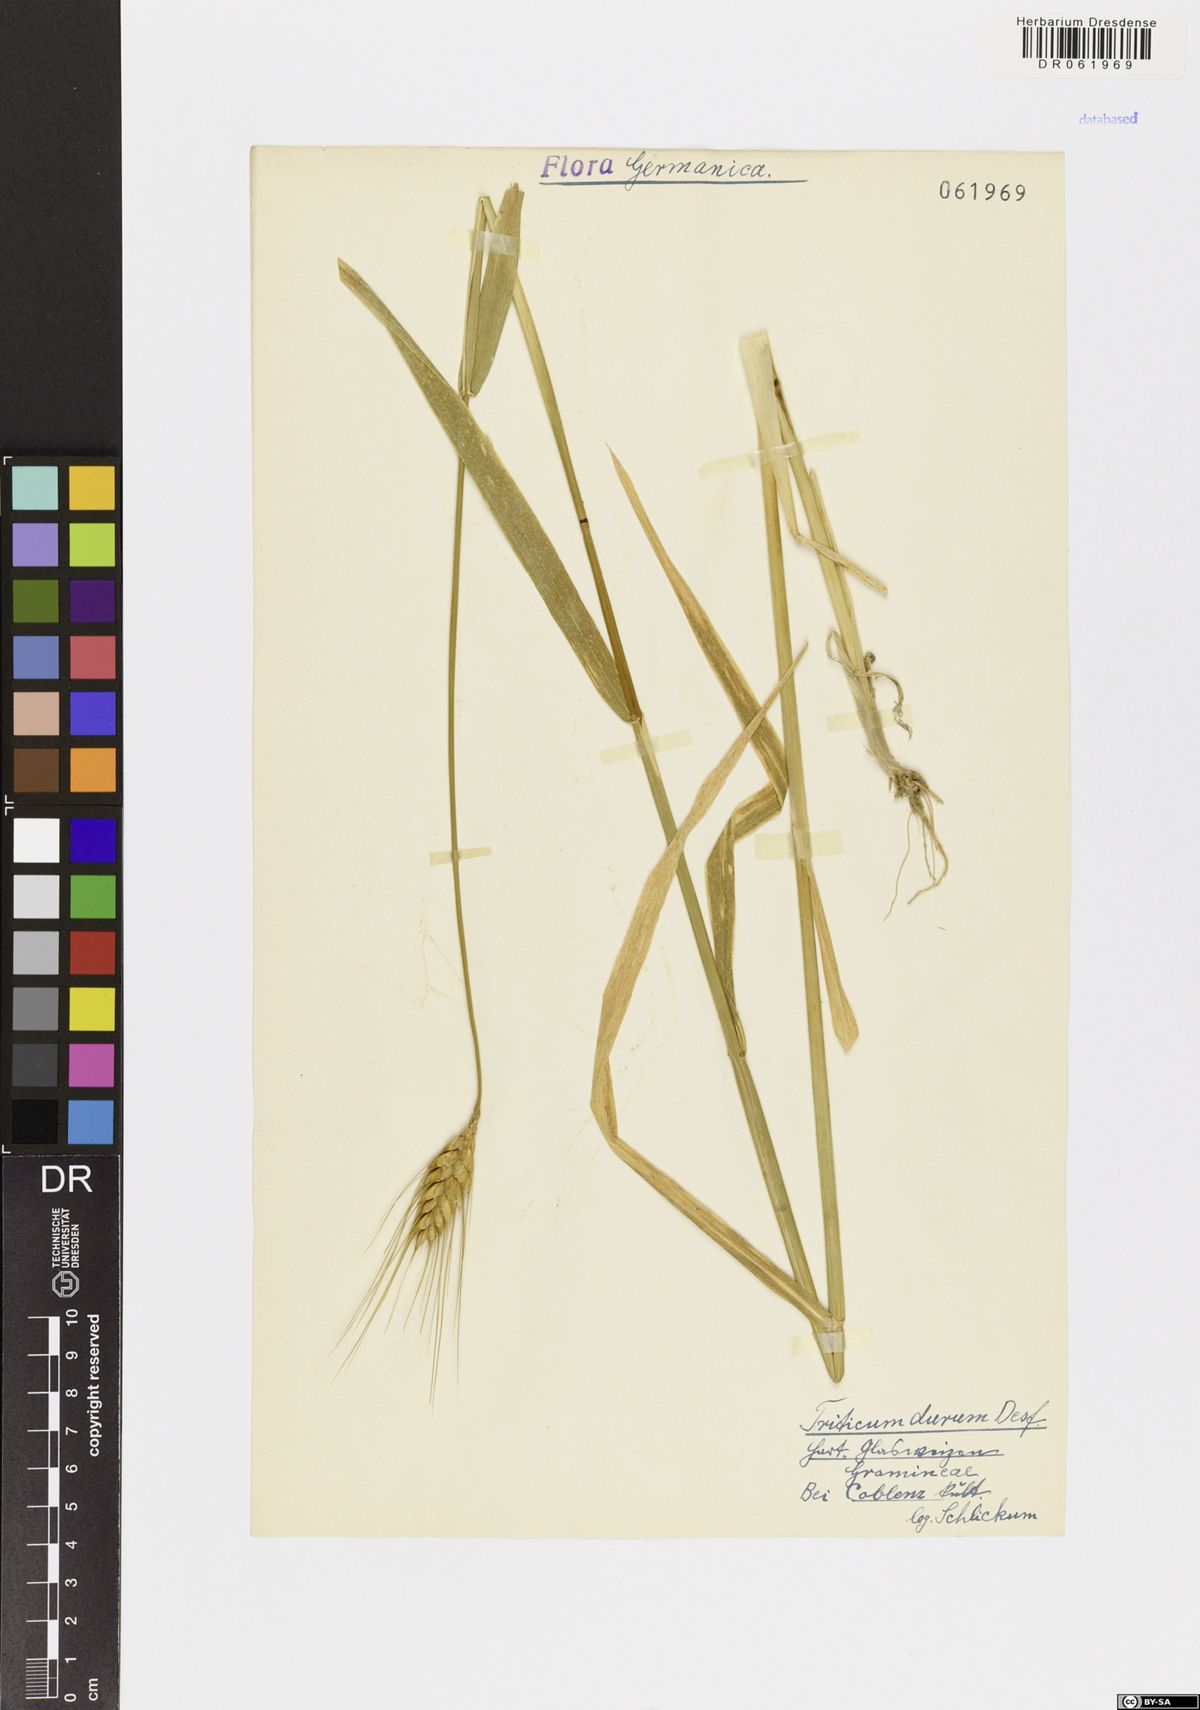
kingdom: Plantae
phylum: Tracheophyta
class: Liliopsida
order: Poales
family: Poaceae
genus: Triticum
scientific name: Triticum turgidum
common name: Rivet wheat
